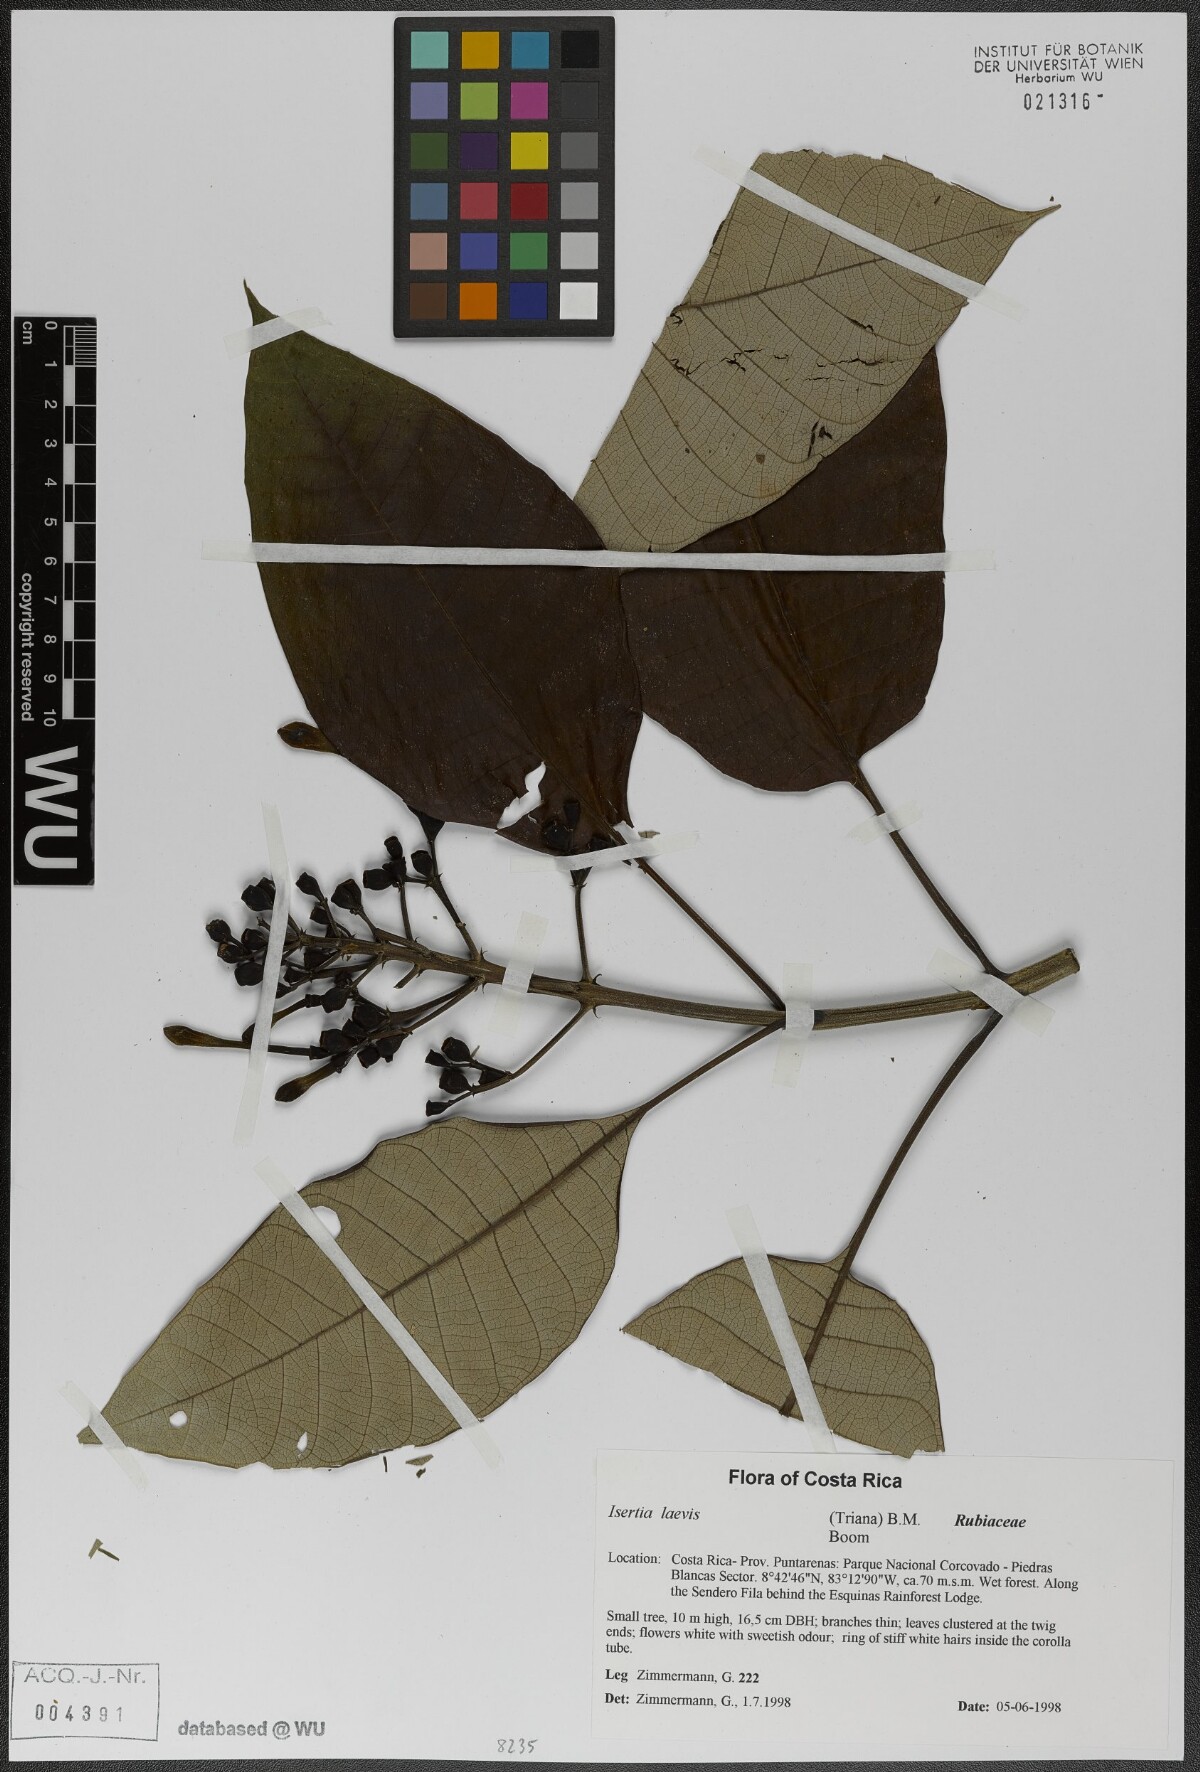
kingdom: Plantae
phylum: Tracheophyta
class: Magnoliopsida
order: Gentianales
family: Rubiaceae
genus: Isertia
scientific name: Isertia laevis
